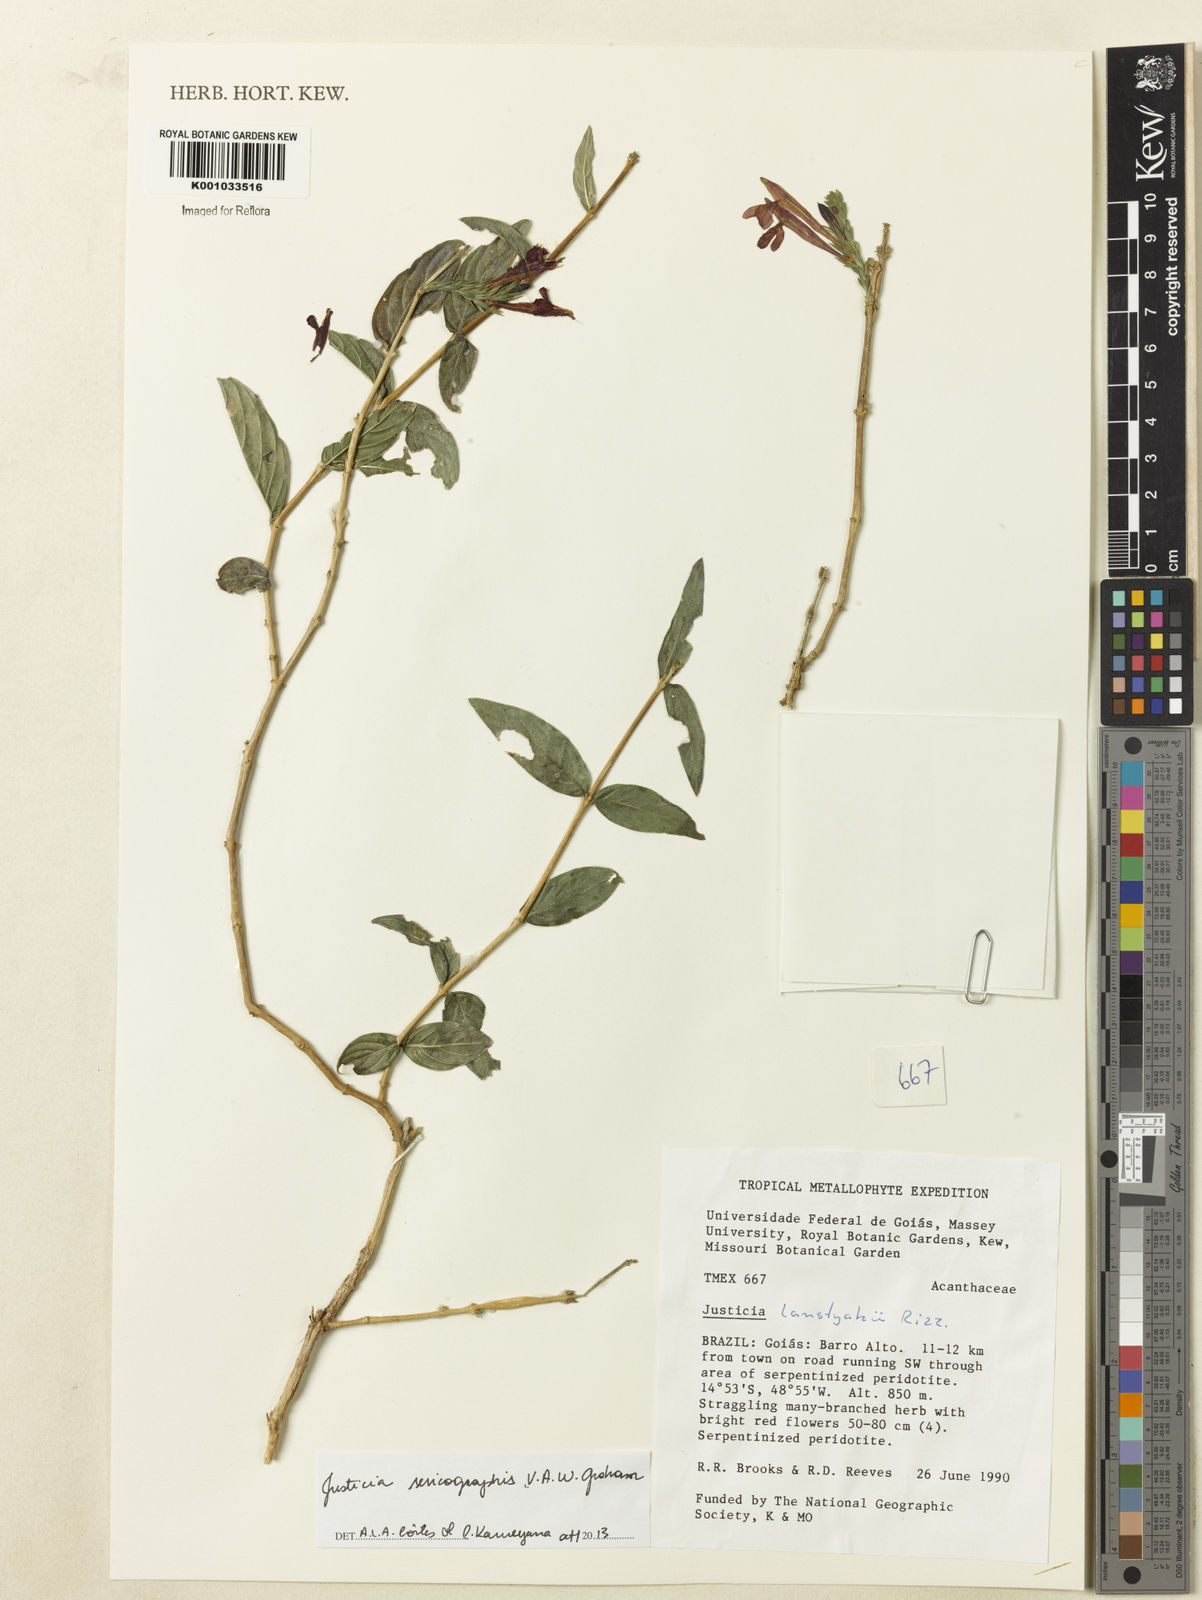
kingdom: Plantae
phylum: Tracheophyta
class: Magnoliopsida
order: Lamiales
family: Acanthaceae
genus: Dianthera
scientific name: Dianthera rigida
